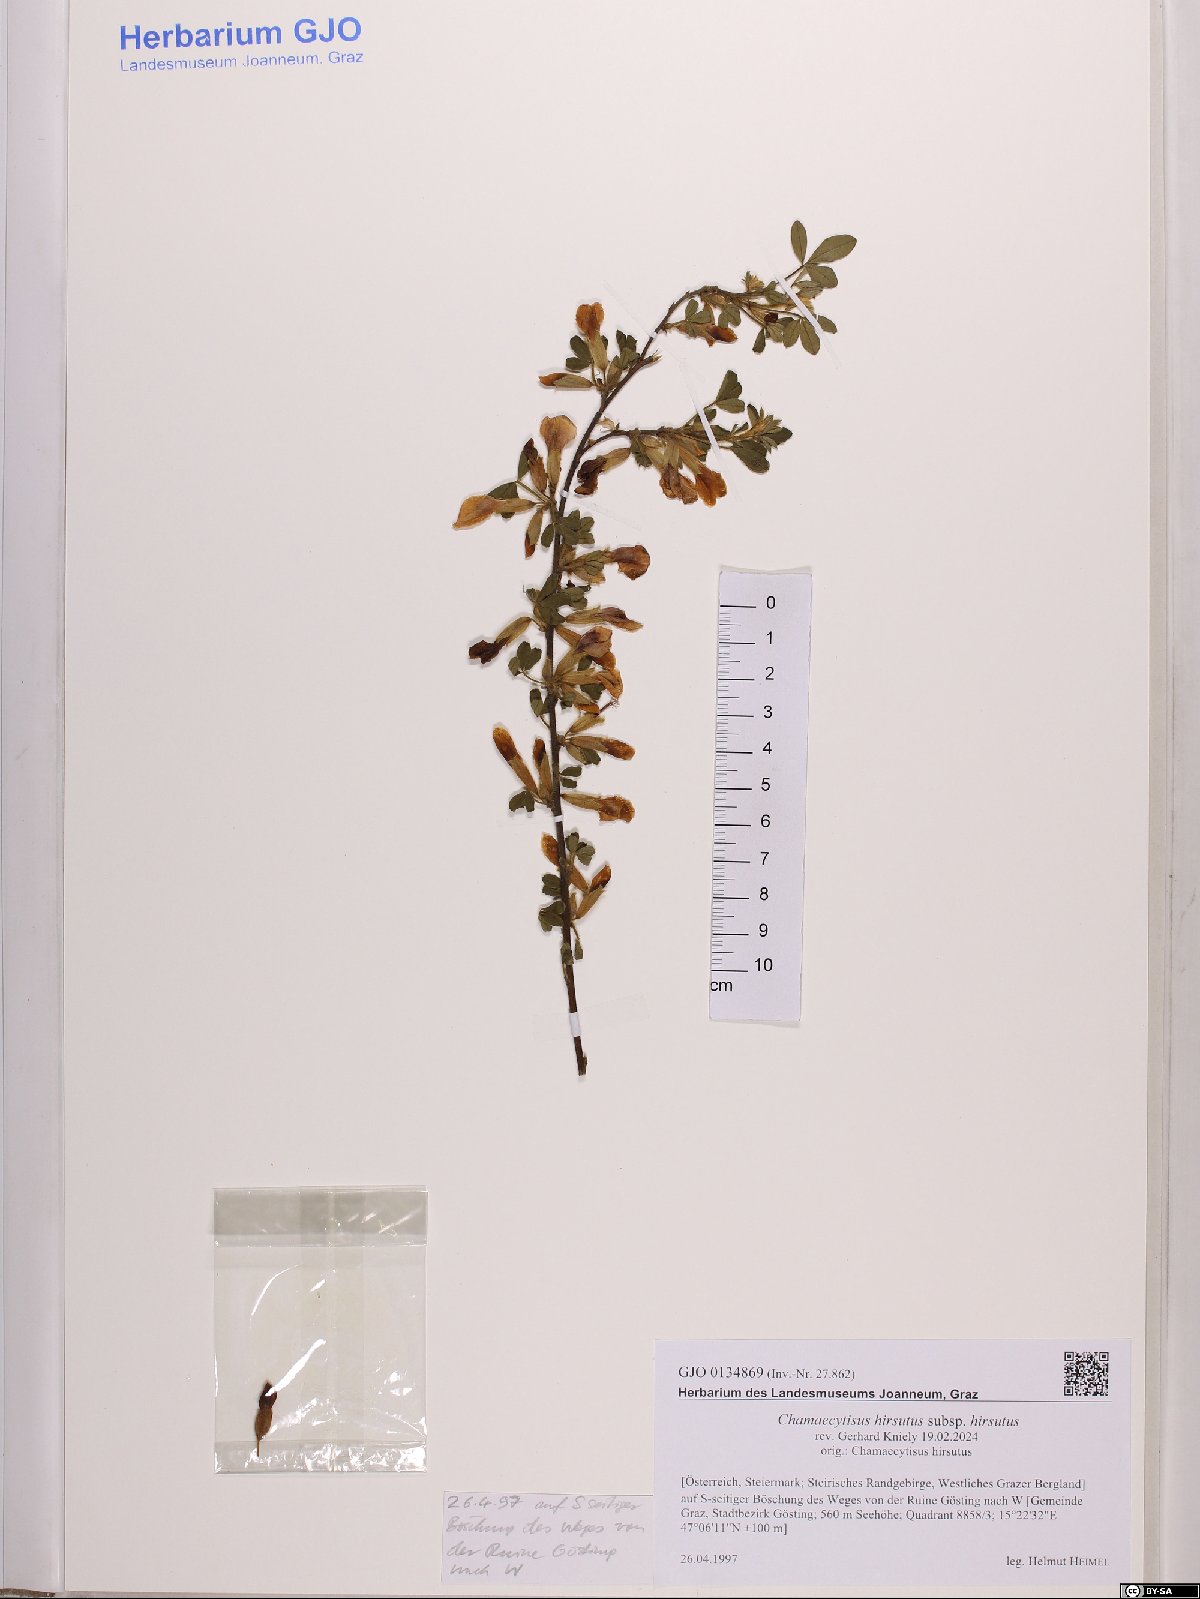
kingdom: Plantae
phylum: Tracheophyta
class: Magnoliopsida
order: Fabales
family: Fabaceae
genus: Chamaecytisus
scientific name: Chamaecytisus hirsutus
